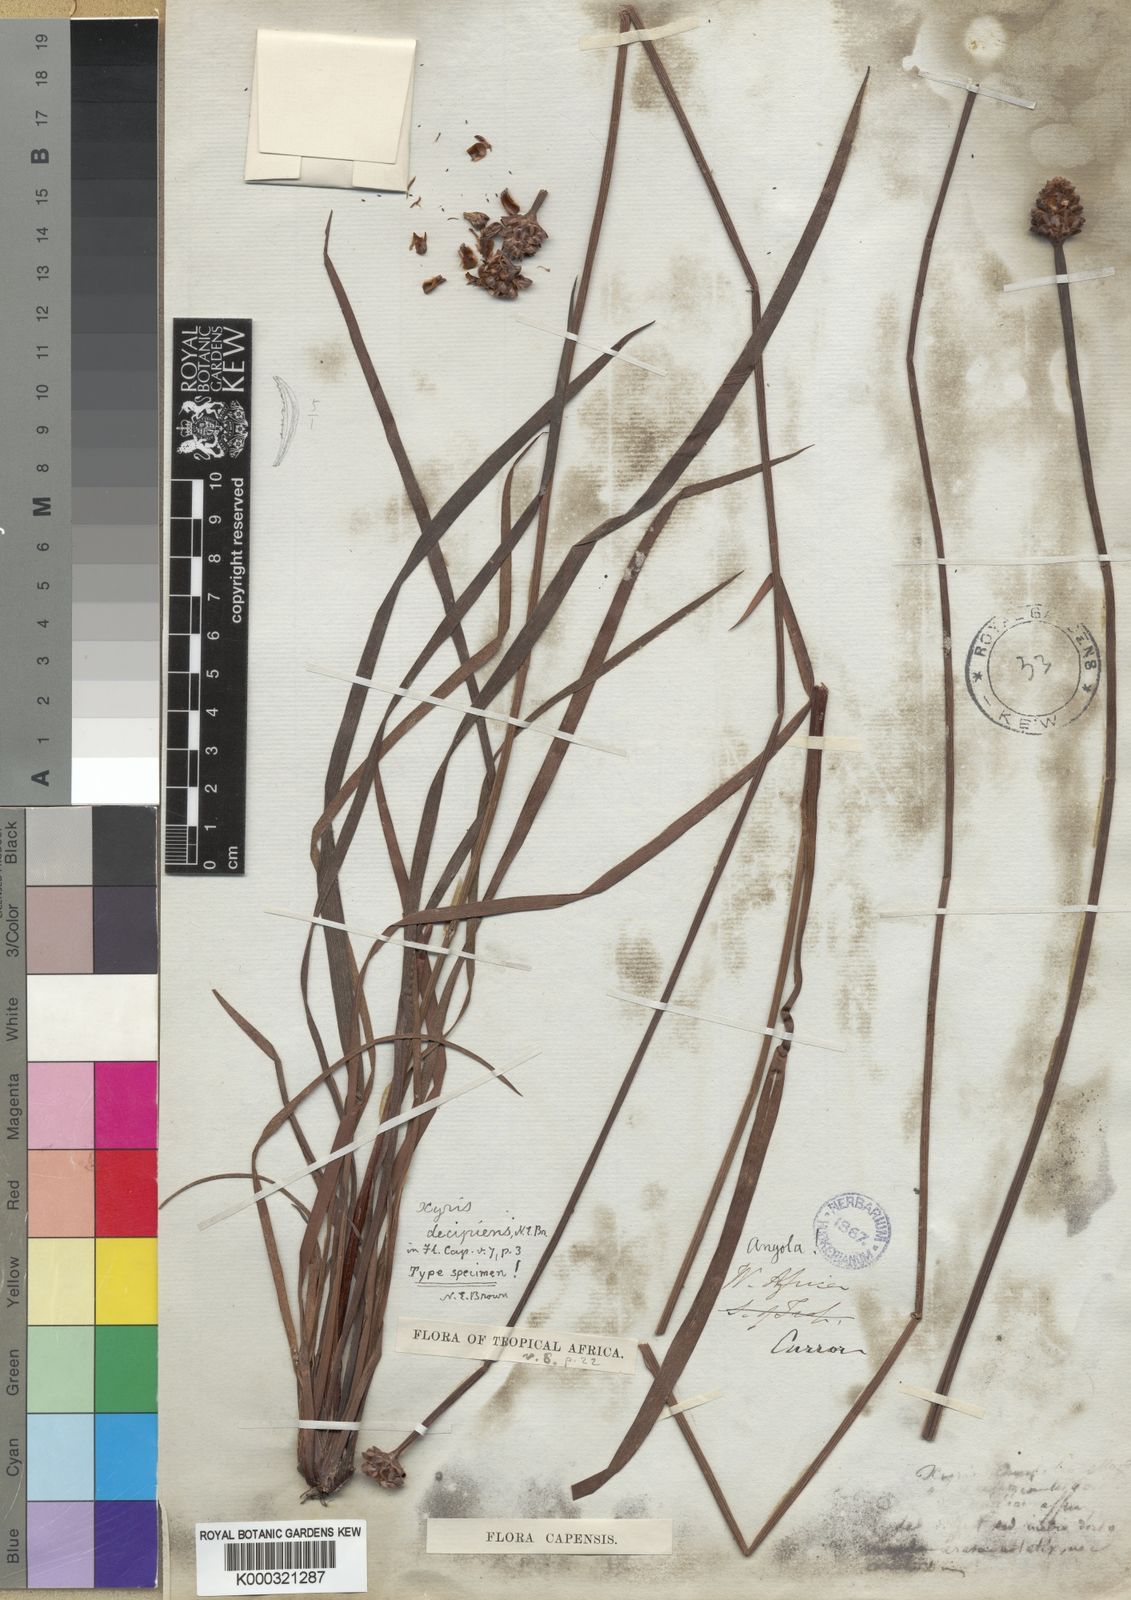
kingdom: Plantae
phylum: Tracheophyta
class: Liliopsida
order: Poales
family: Xyridaceae
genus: Xyris
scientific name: Xyris
